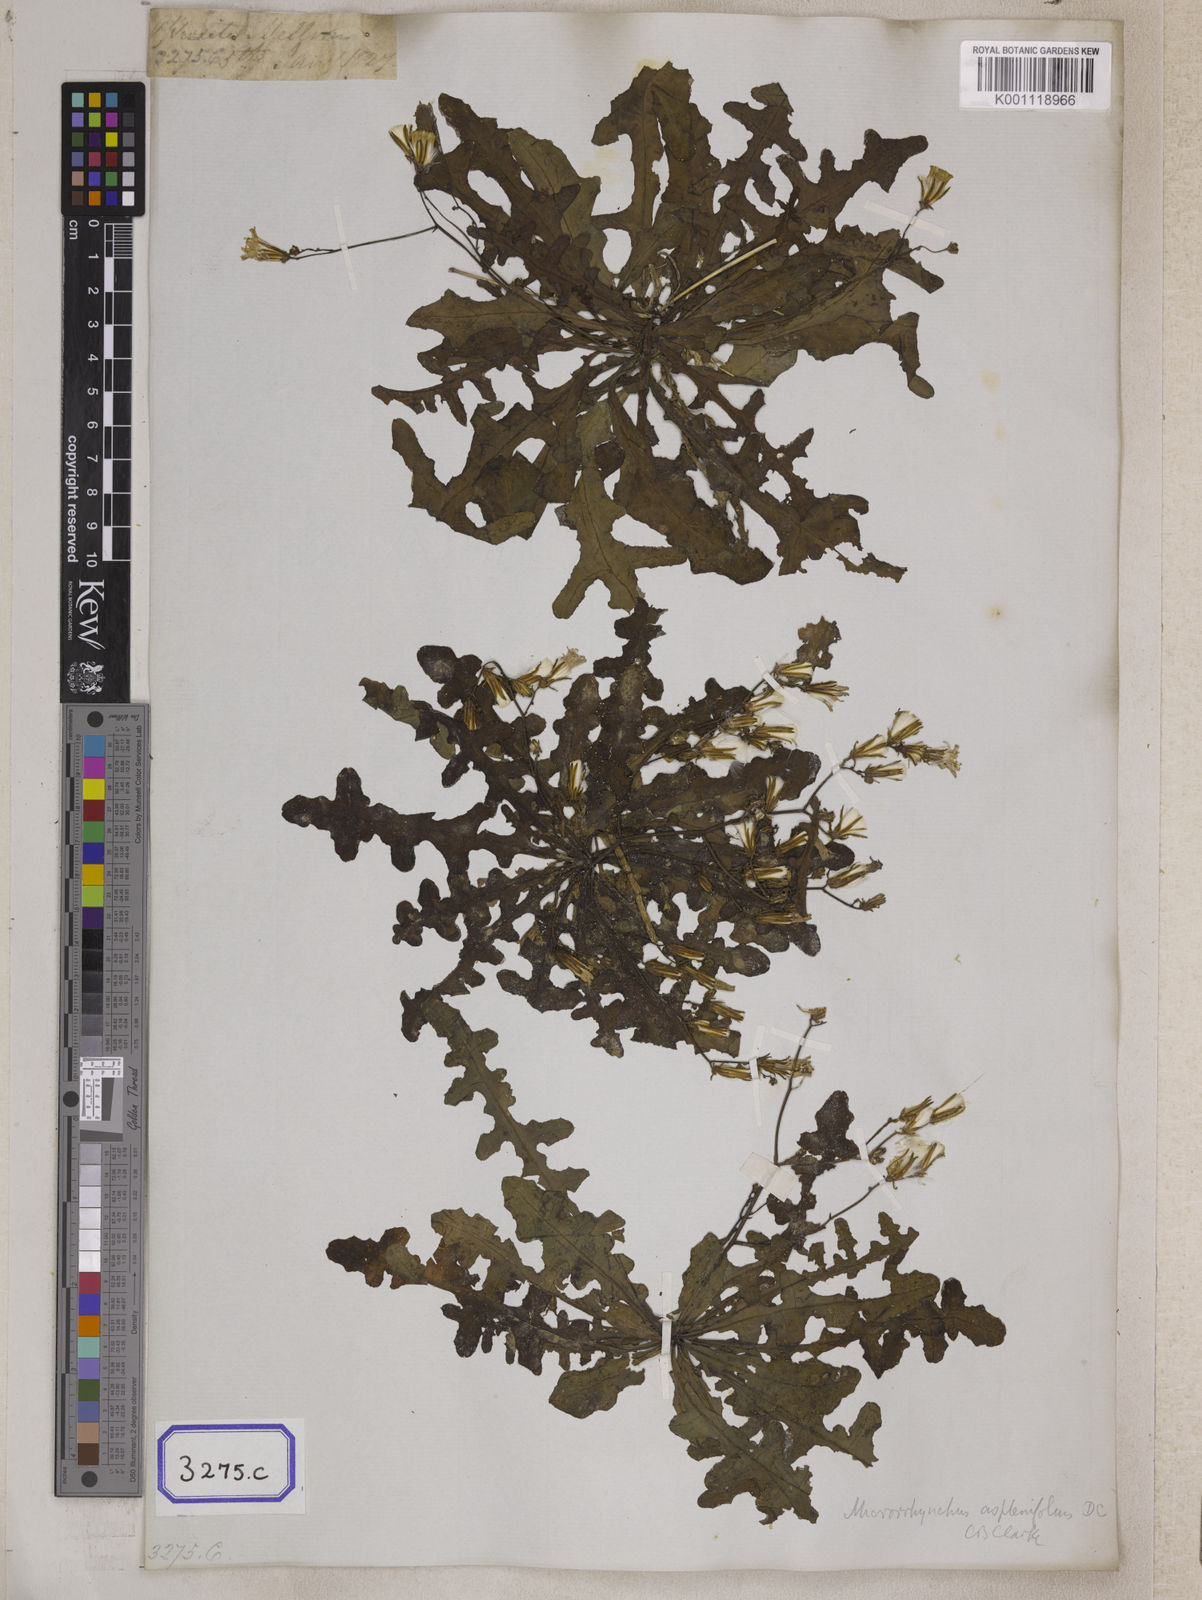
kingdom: Plantae
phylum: Tracheophyta
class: Magnoliopsida
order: Asterales
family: Asteraceae
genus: Launaea
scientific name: Launaea aspleniifolia
